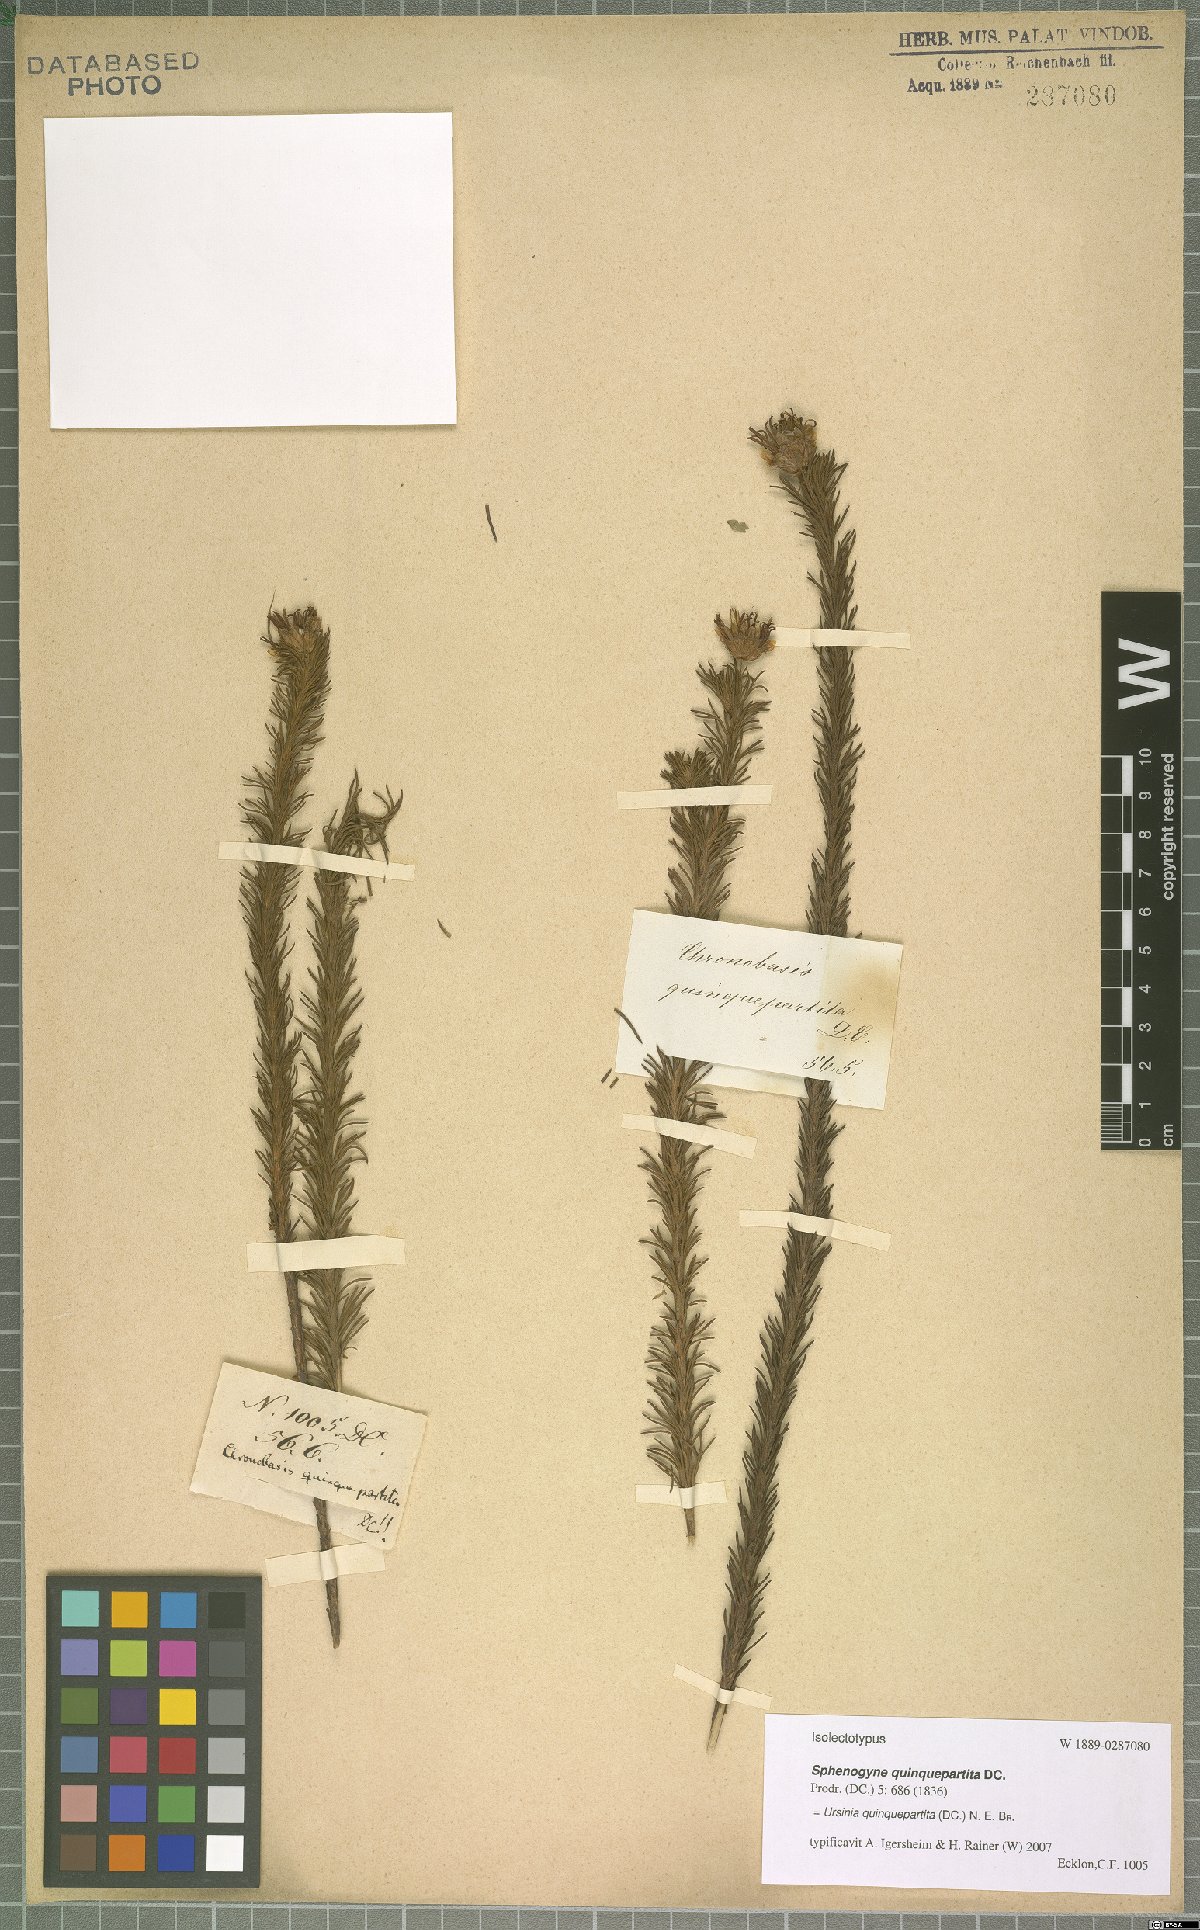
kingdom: Plantae
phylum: Tracheophyta
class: Magnoliopsida
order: Asterales
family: Asteraceae
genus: Ursinia
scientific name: Ursinia quinquepartita
